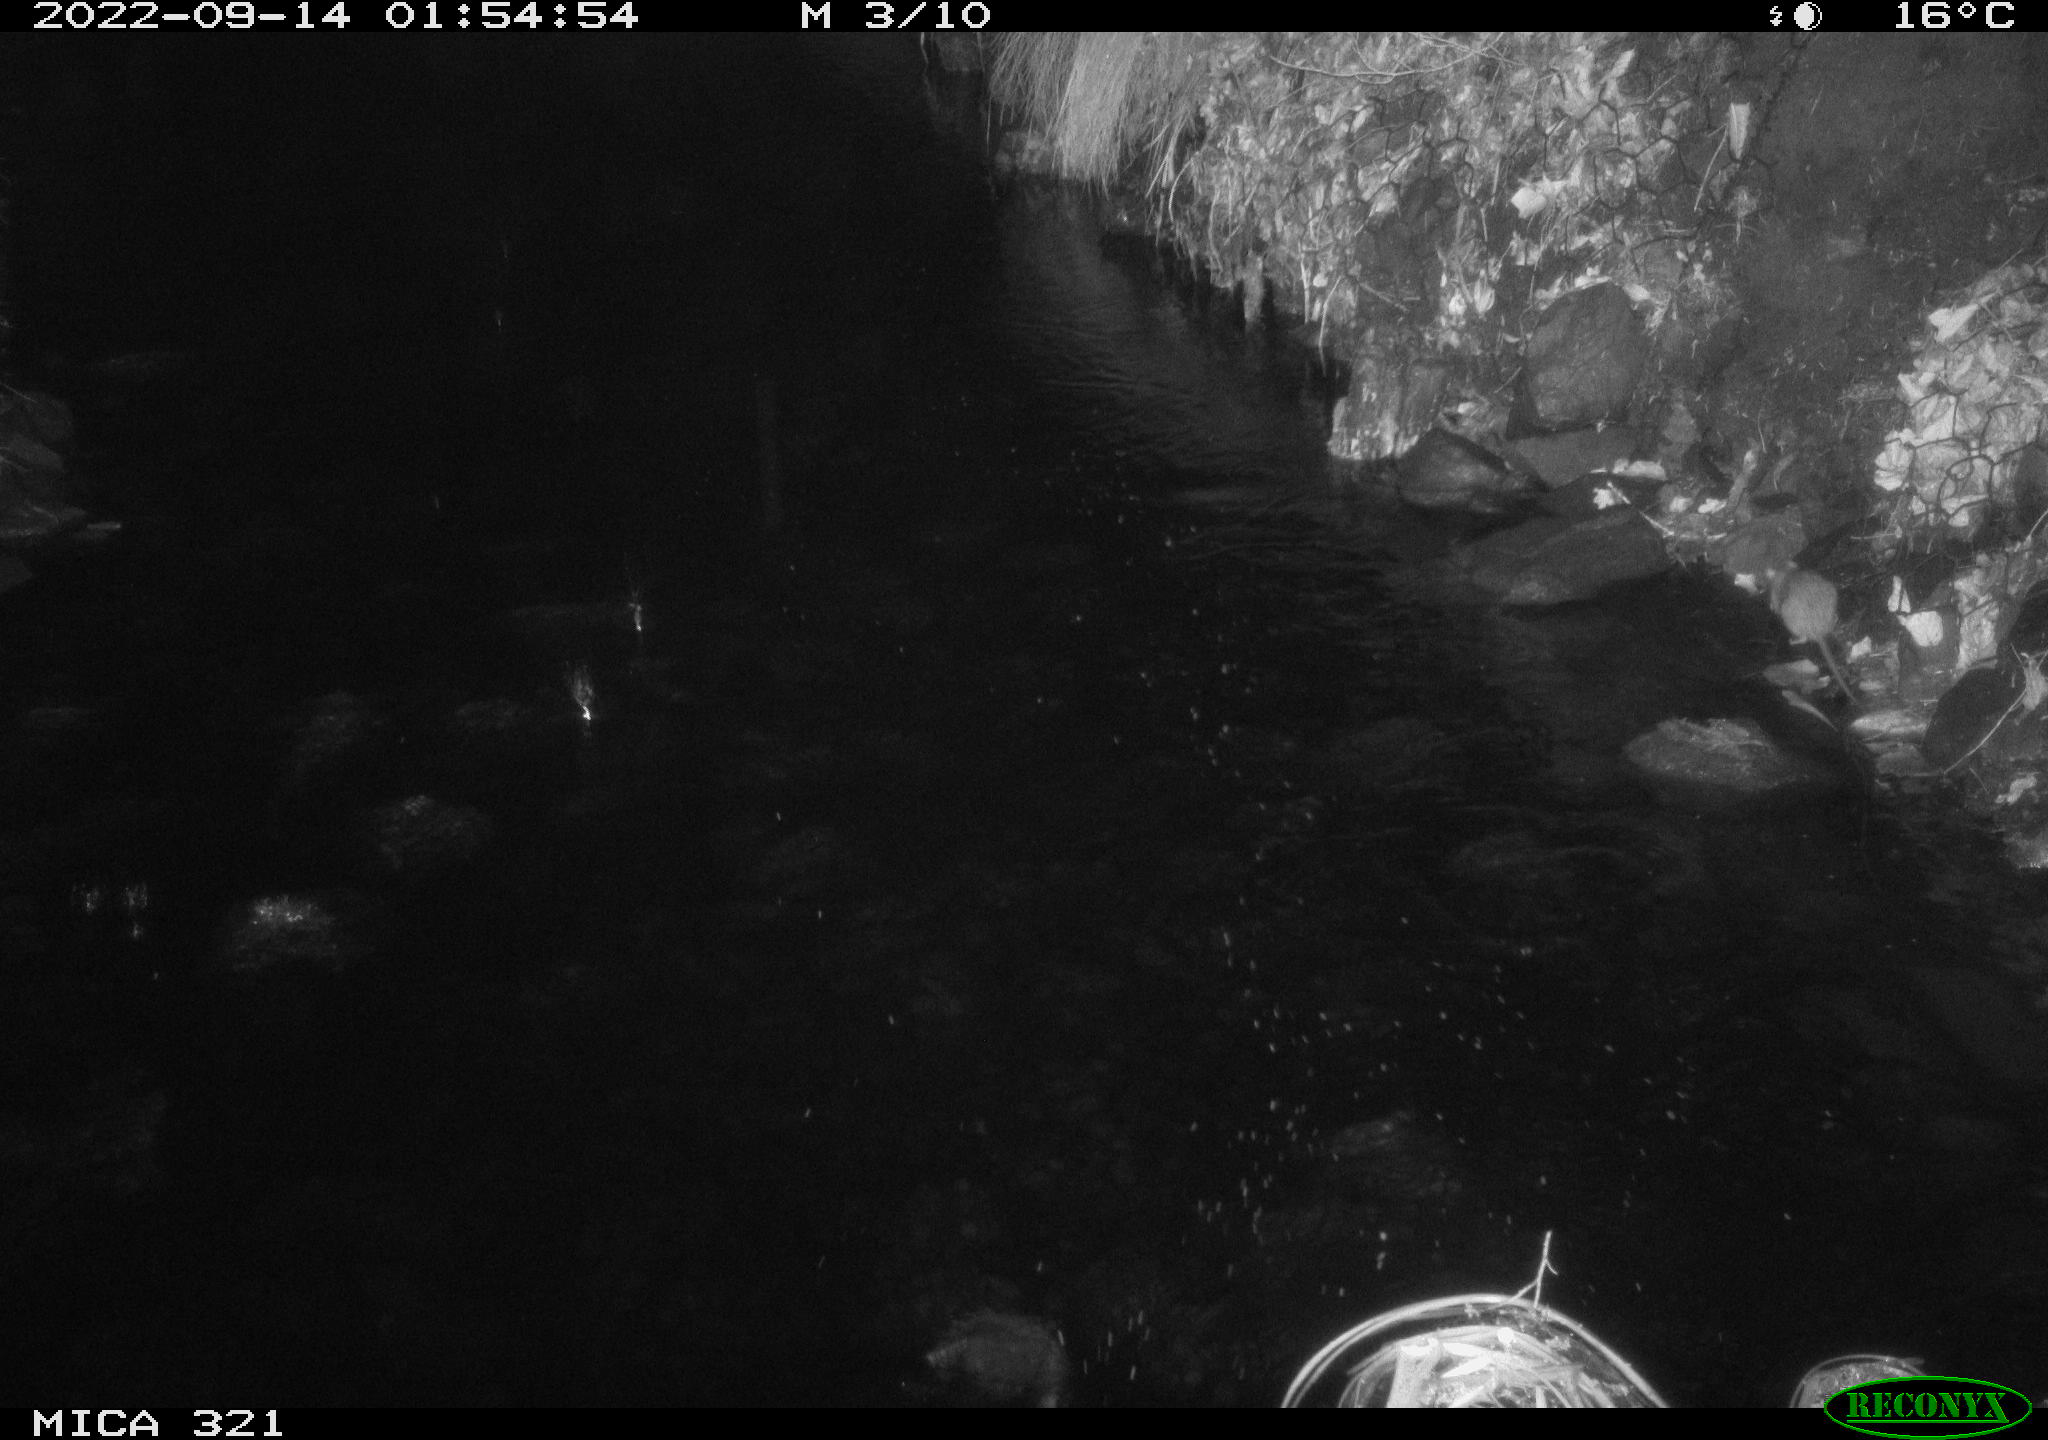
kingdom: Animalia
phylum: Chordata
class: Mammalia
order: Rodentia
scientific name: Rodentia
